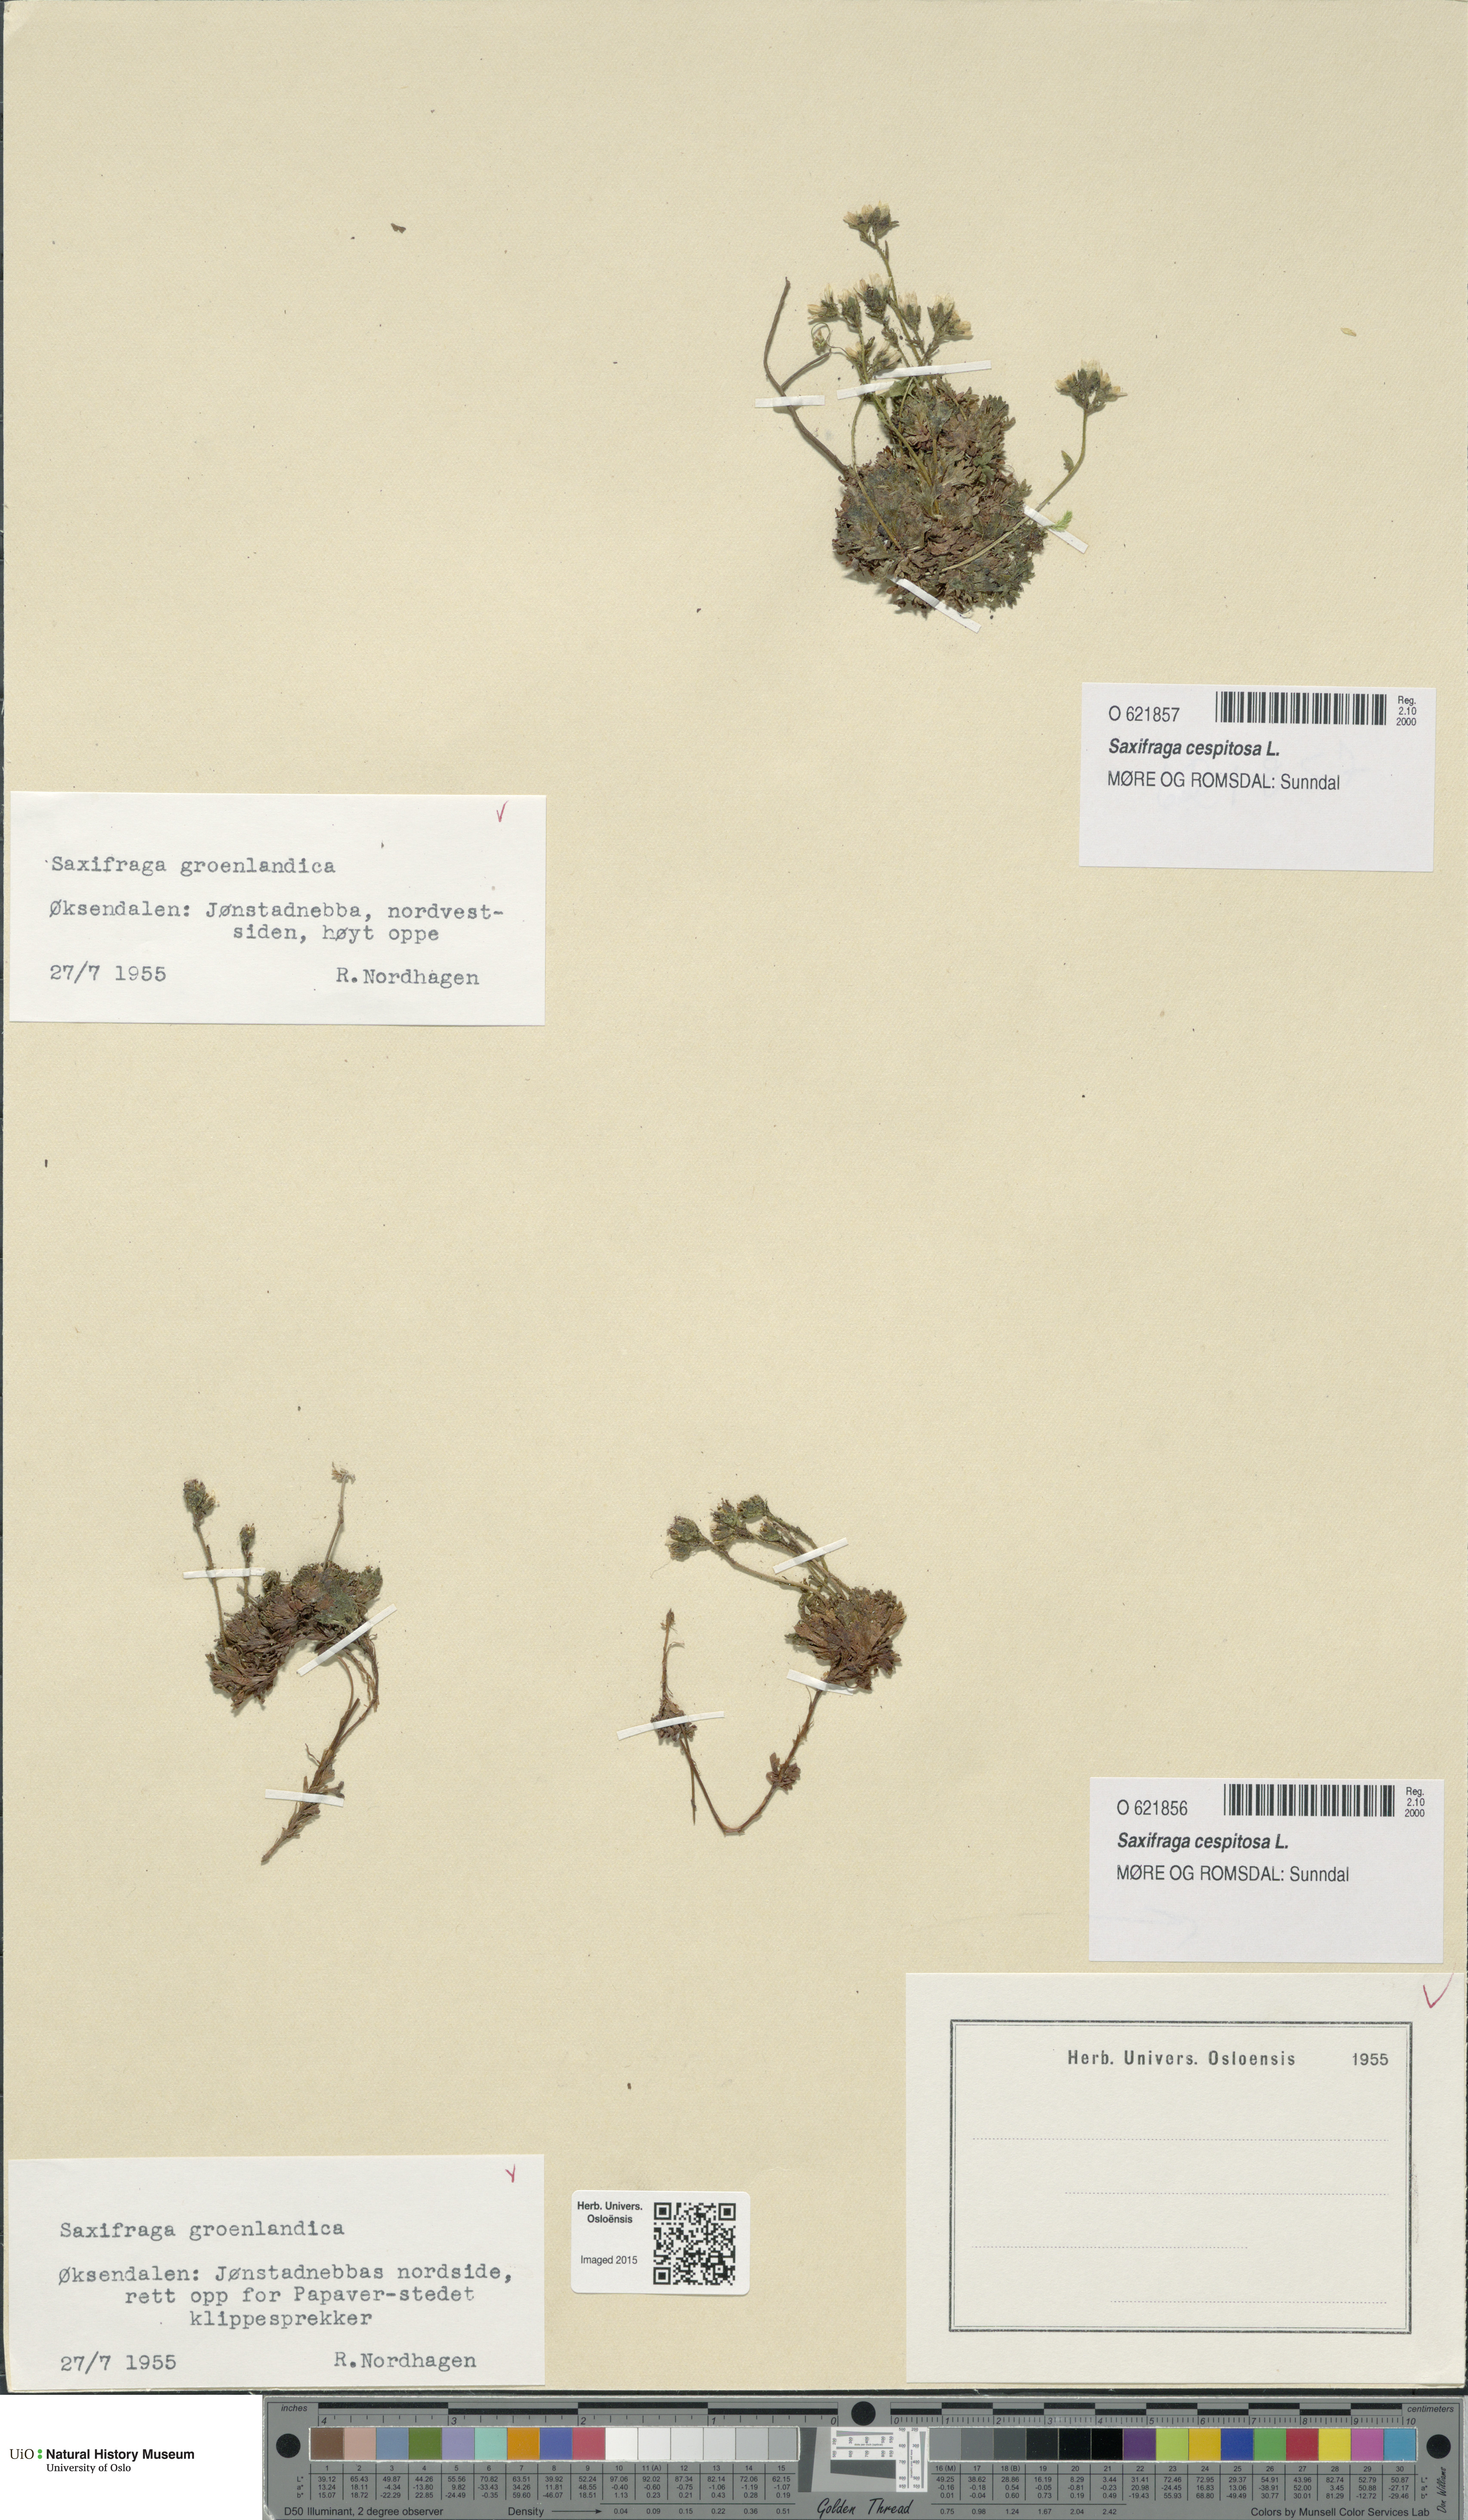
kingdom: Plantae
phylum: Tracheophyta
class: Magnoliopsida
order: Saxifragales
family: Saxifragaceae
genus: Saxifraga
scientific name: Saxifraga cespitosa
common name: Tufted saxifrage
